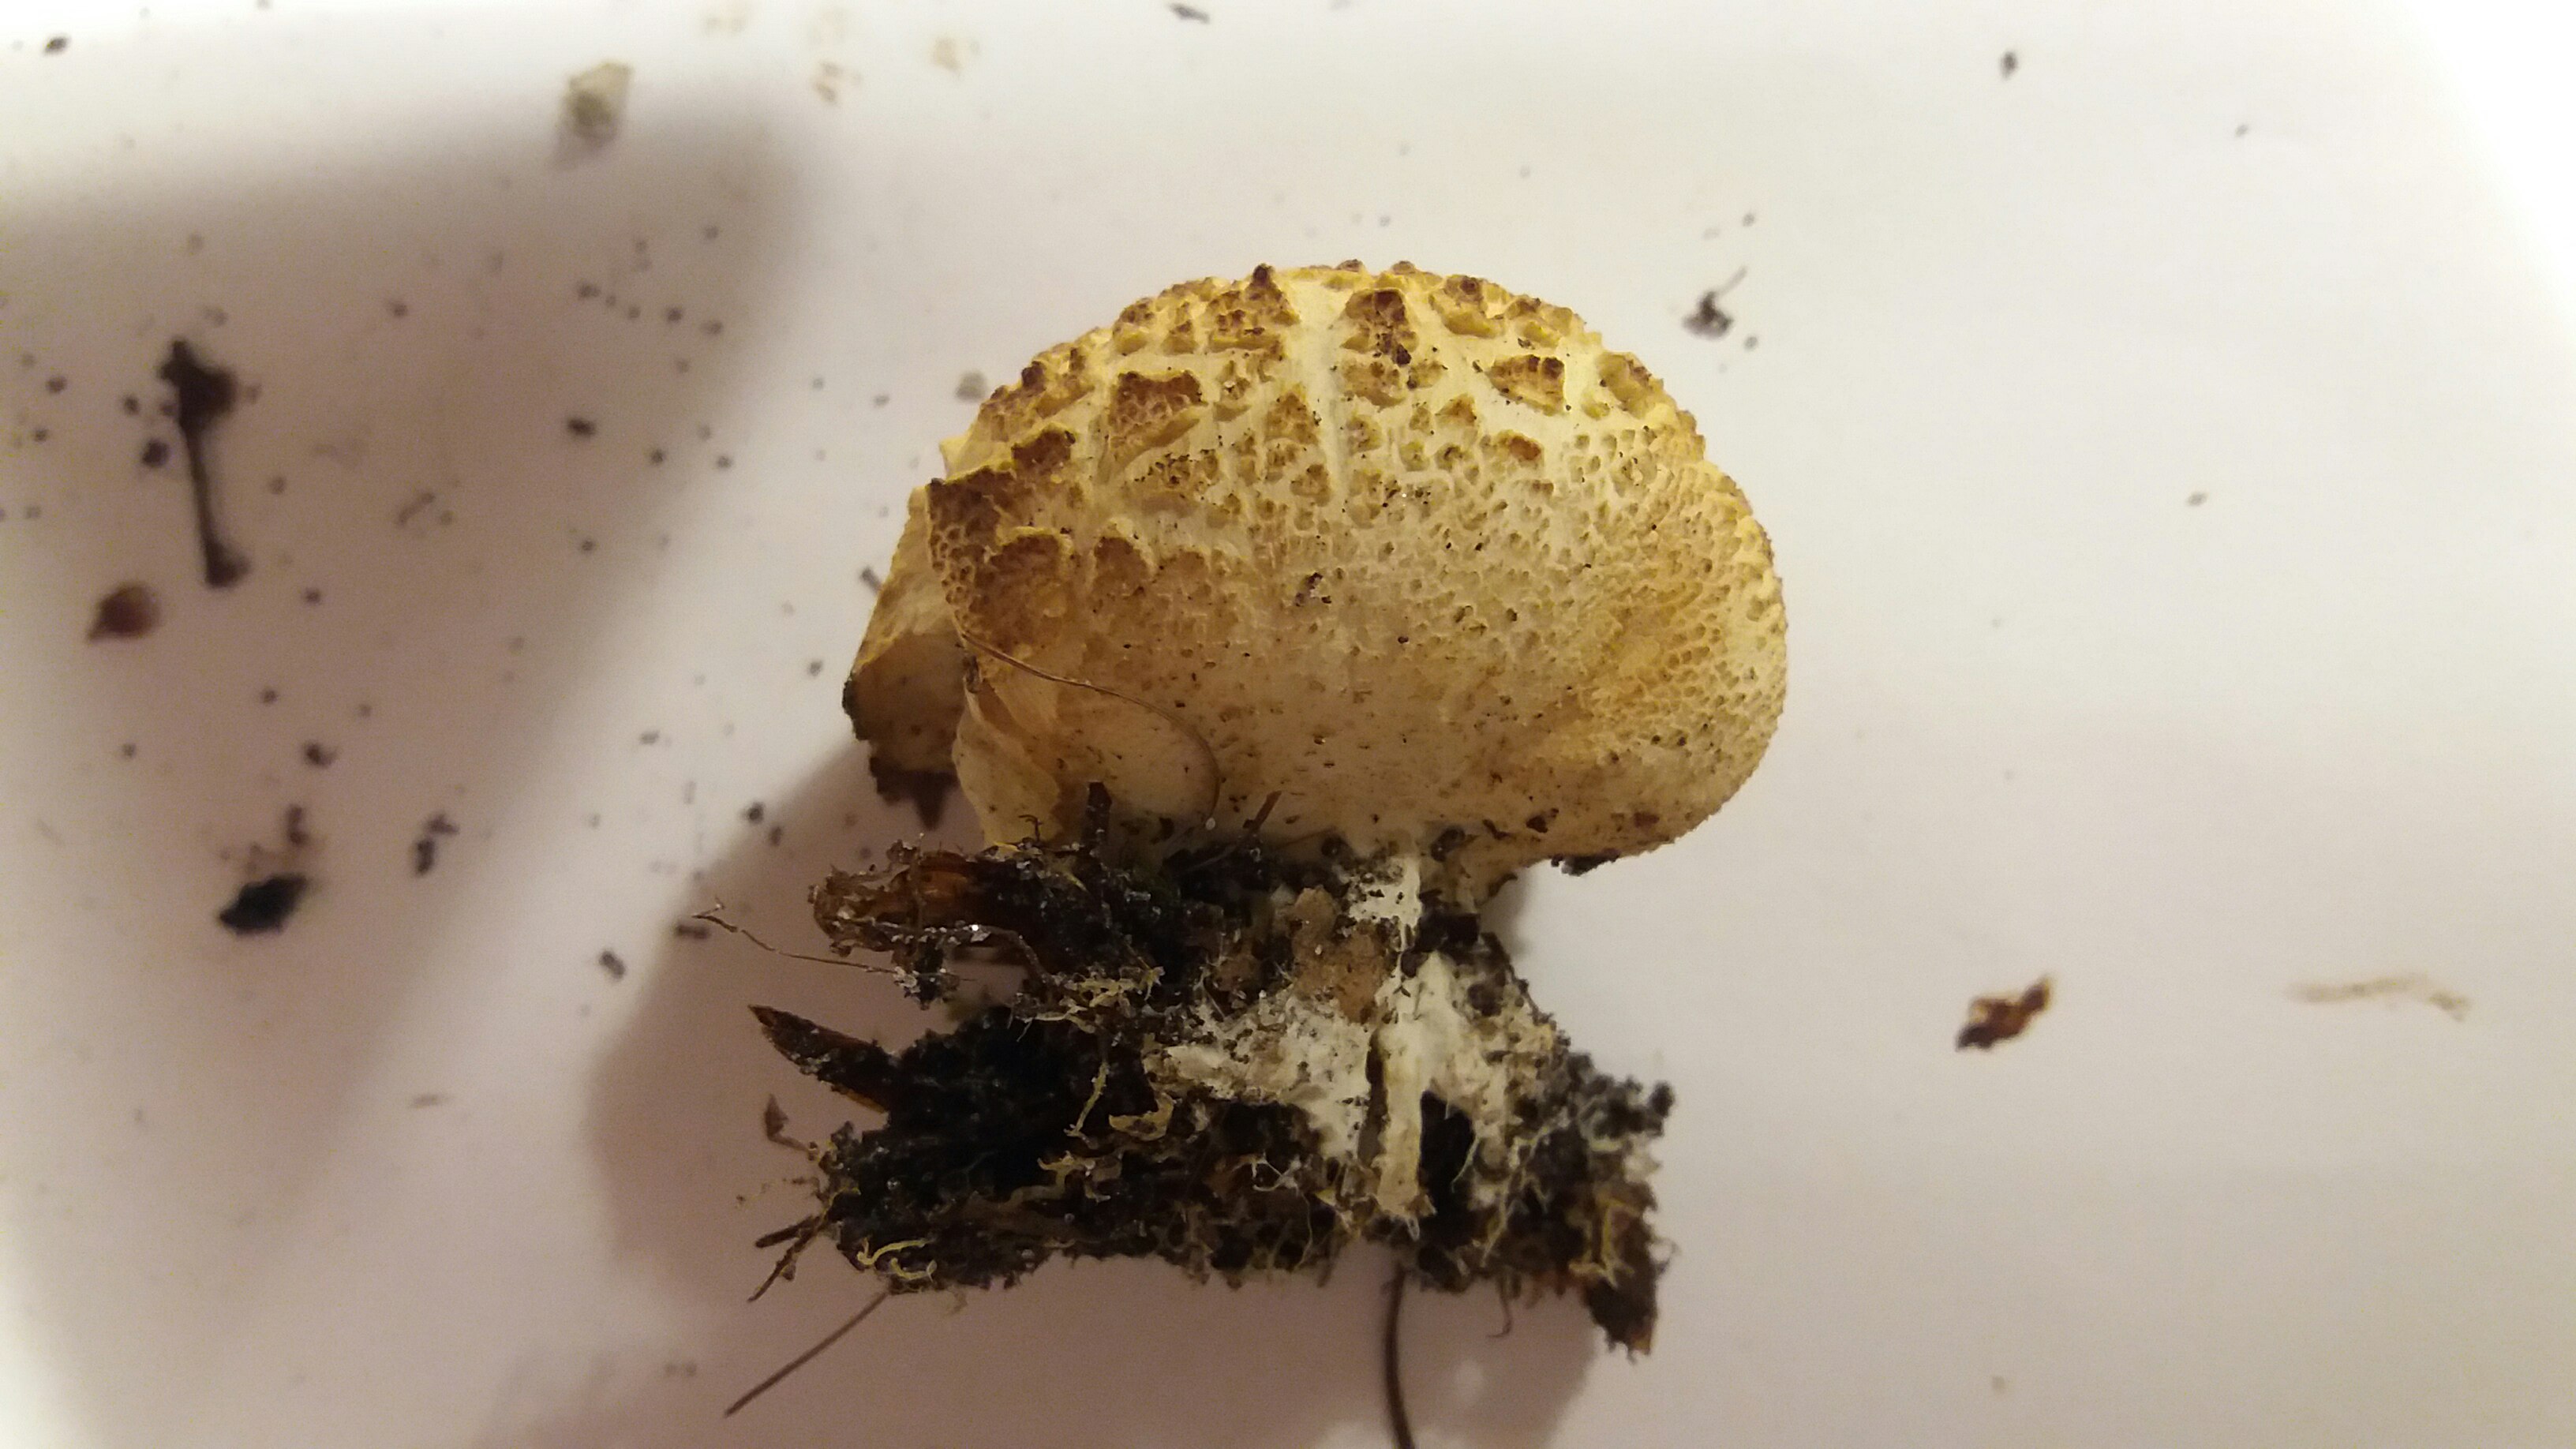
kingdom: Fungi
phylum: Basidiomycota
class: Agaricomycetes
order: Boletales
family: Sclerodermataceae
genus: Scleroderma
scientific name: Scleroderma citrinum
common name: almindelig bruskbold
